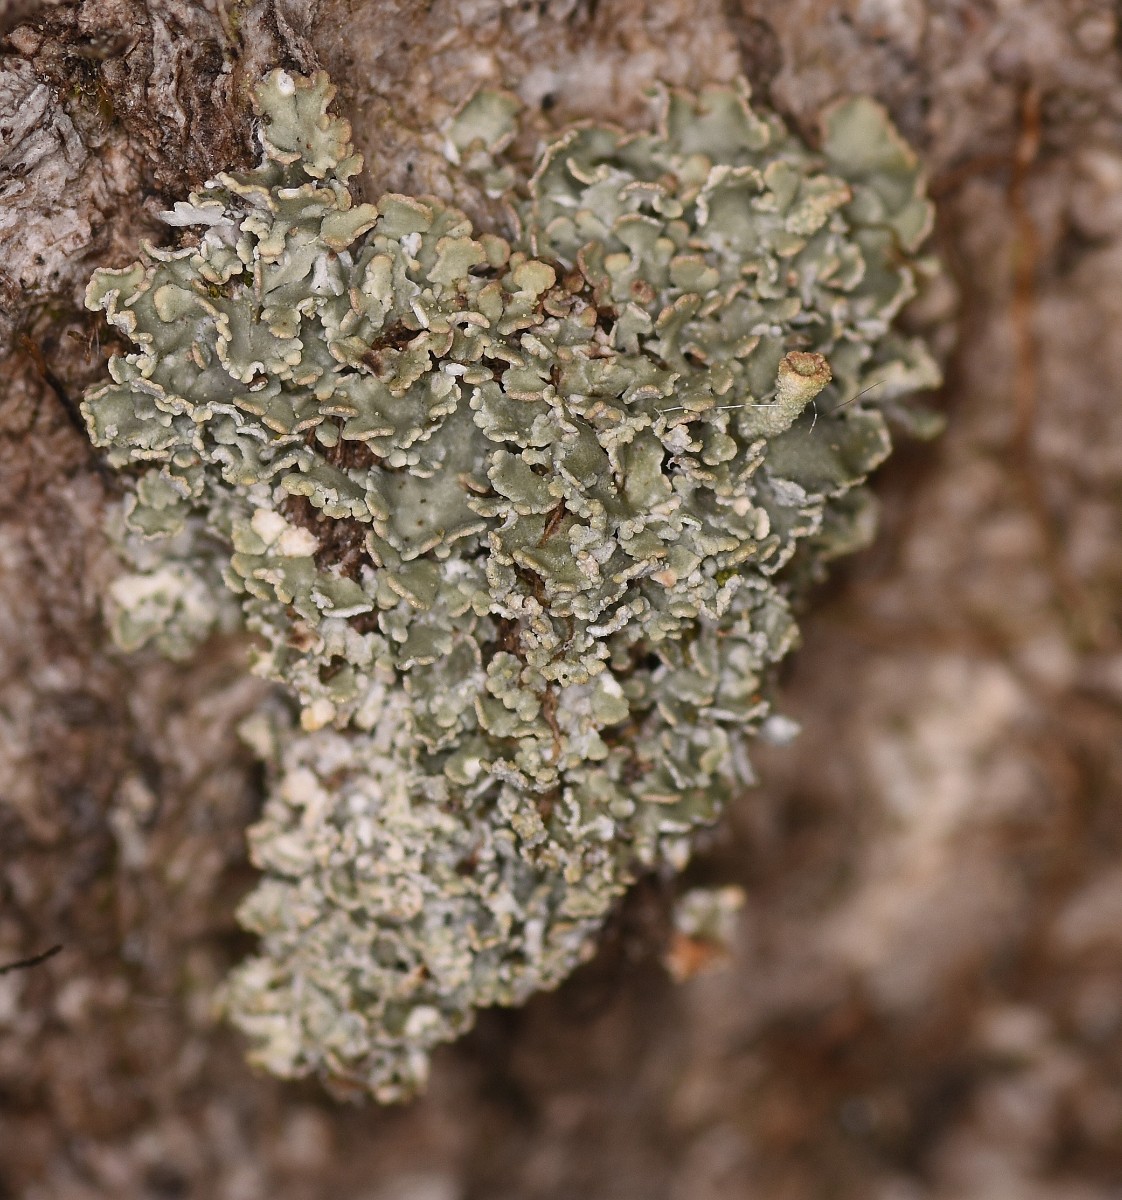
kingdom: Fungi
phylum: Ascomycota
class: Lecanoromycetes
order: Lecanorales
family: Cladoniaceae
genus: Cladonia
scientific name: Cladonia
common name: brungrøn bægerlav
